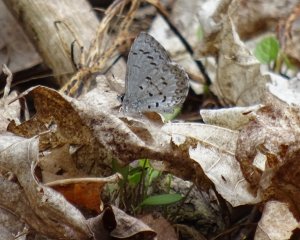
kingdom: Animalia
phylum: Arthropoda
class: Insecta
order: Lepidoptera
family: Lycaenidae
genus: Celastrina
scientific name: Celastrina
